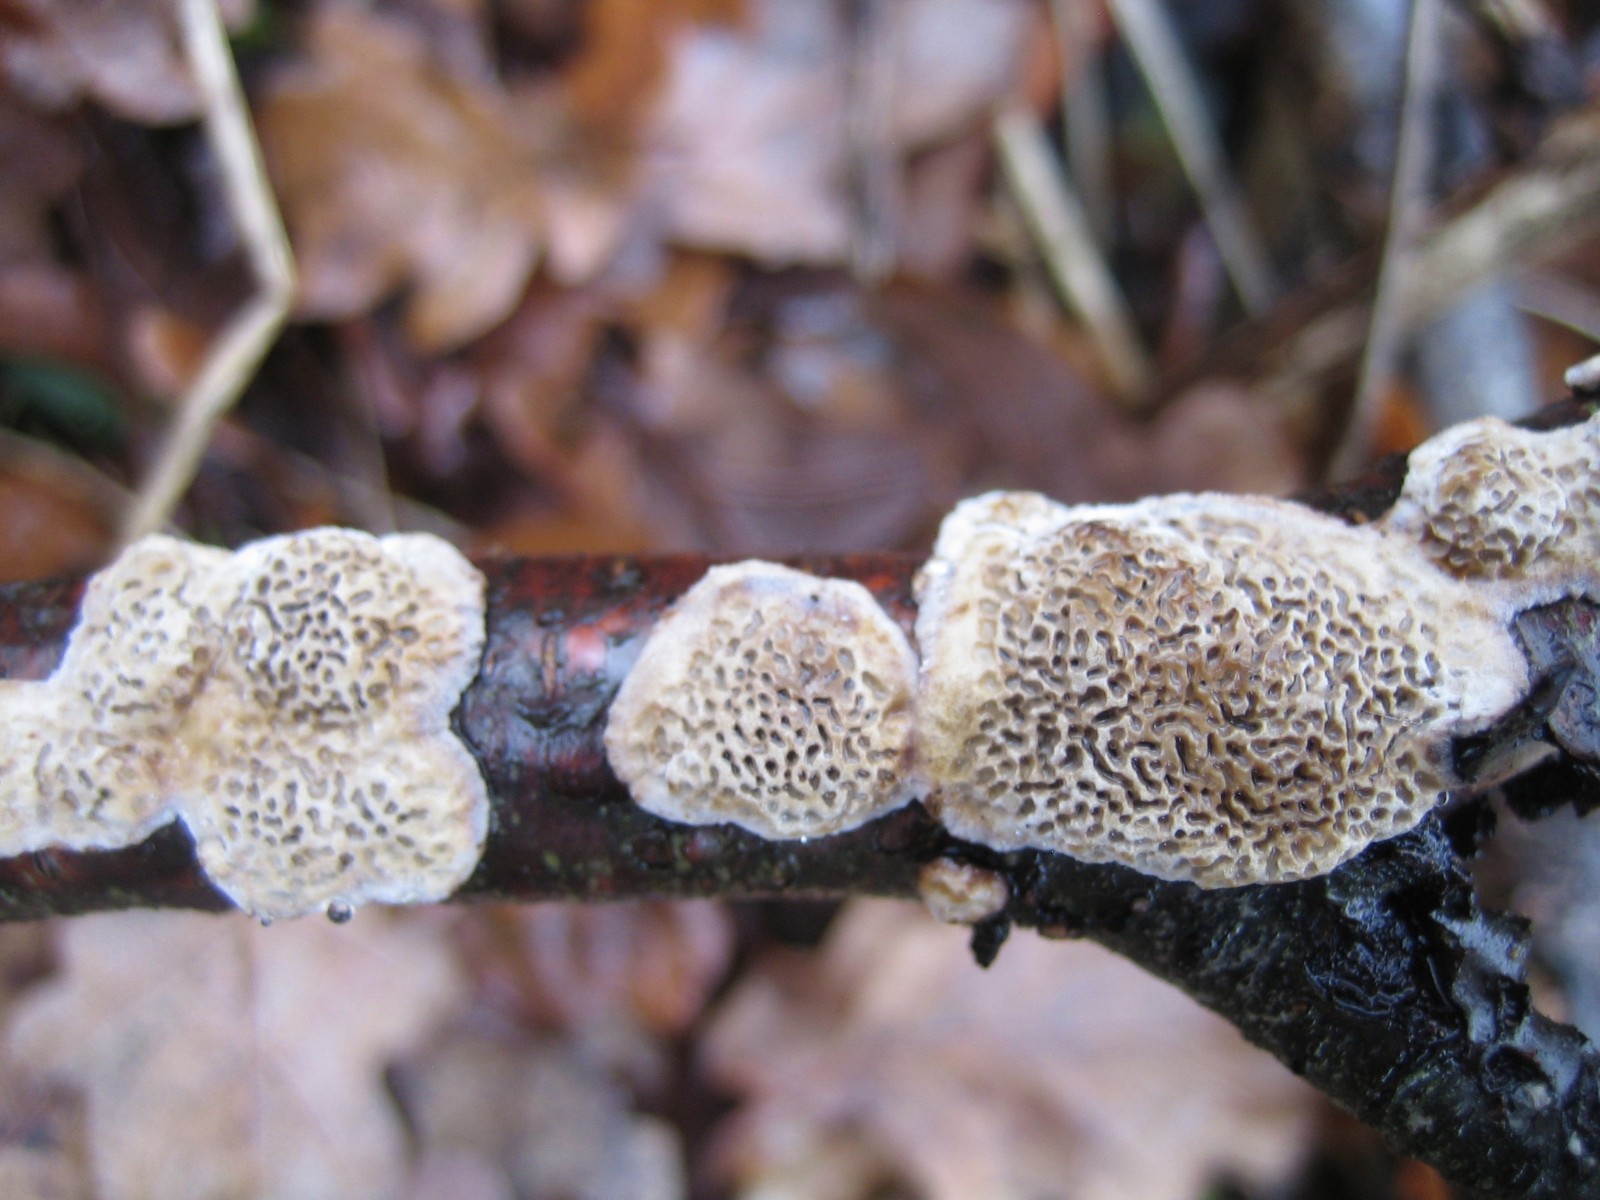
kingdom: Fungi
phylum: Basidiomycota
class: Agaricomycetes
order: Polyporales
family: Polyporaceae
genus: Podofomes
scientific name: Podofomes mollis
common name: blød begporesvamp
